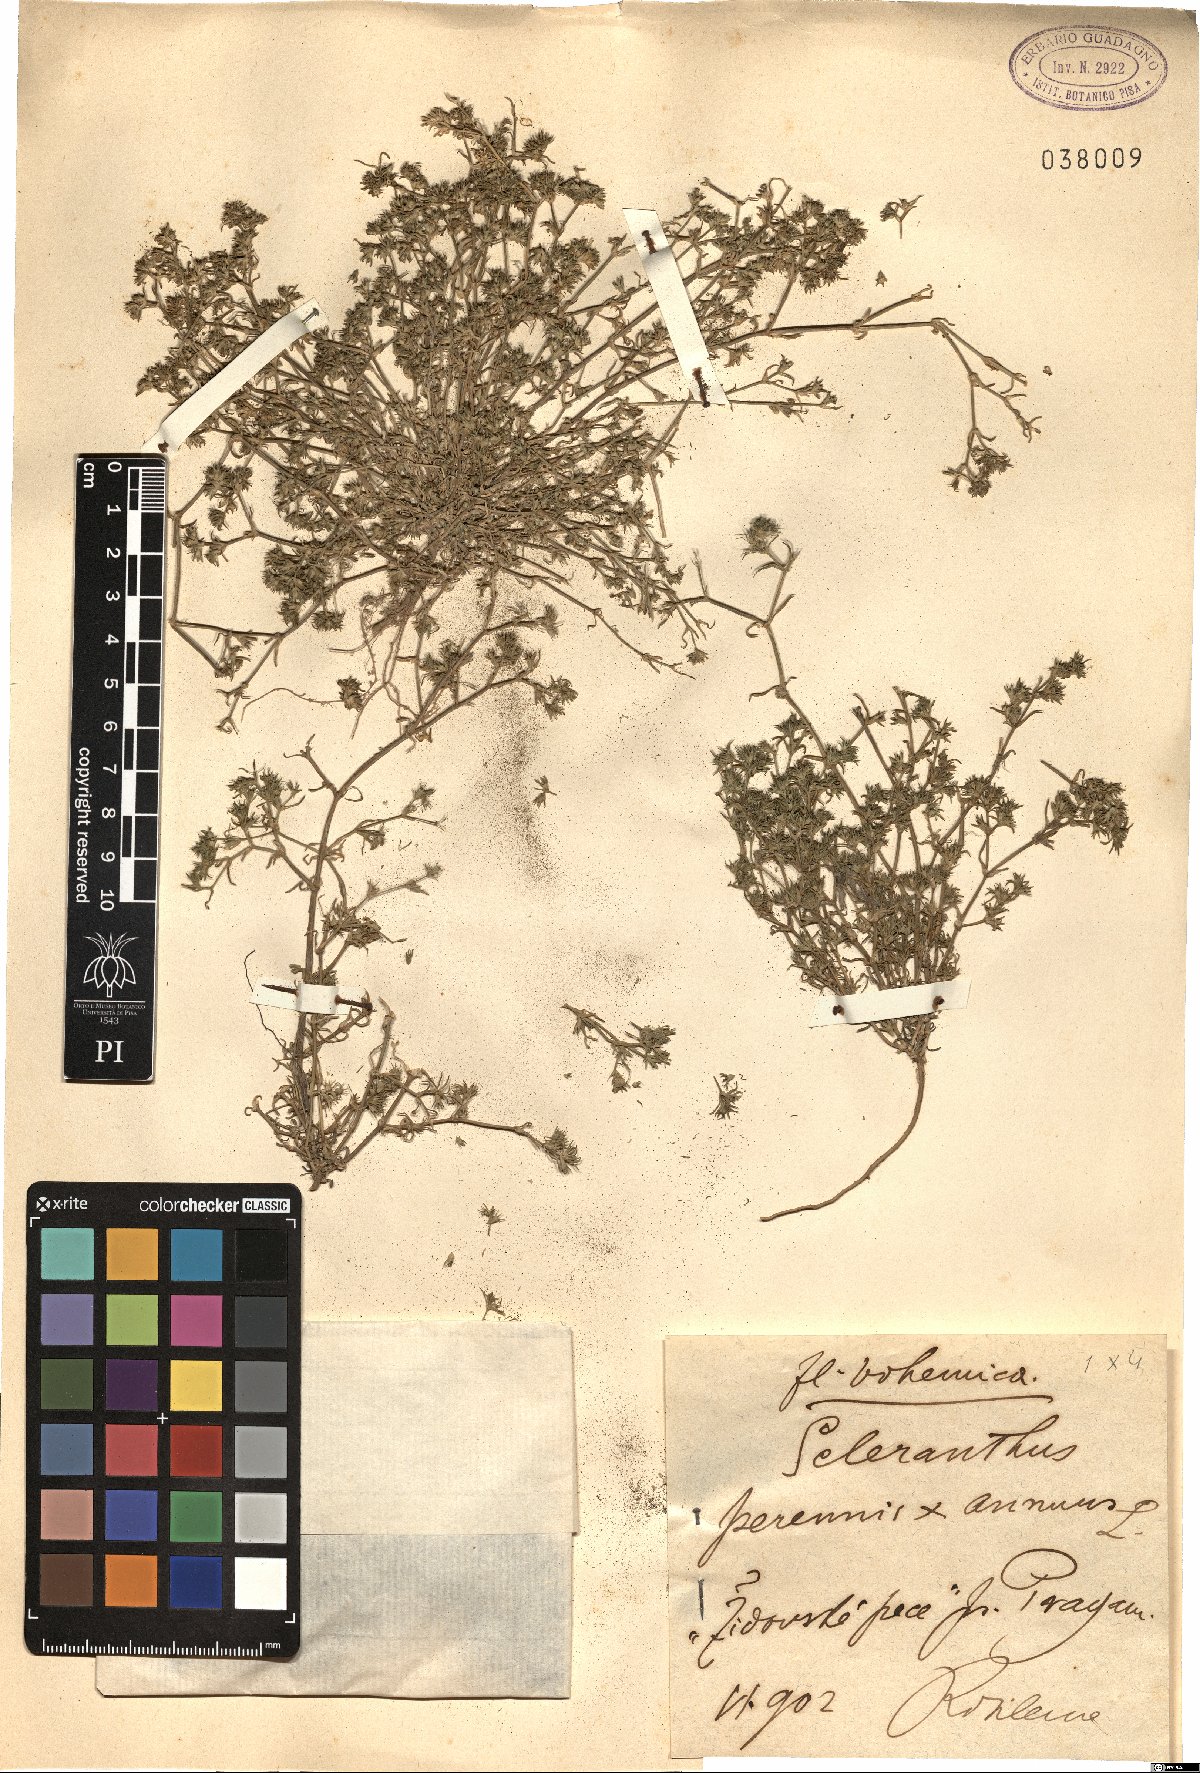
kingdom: Plantae
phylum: Tracheophyta
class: Magnoliopsida
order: Caryophyllales
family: Caryophyllaceae
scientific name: Caryophyllaceae
